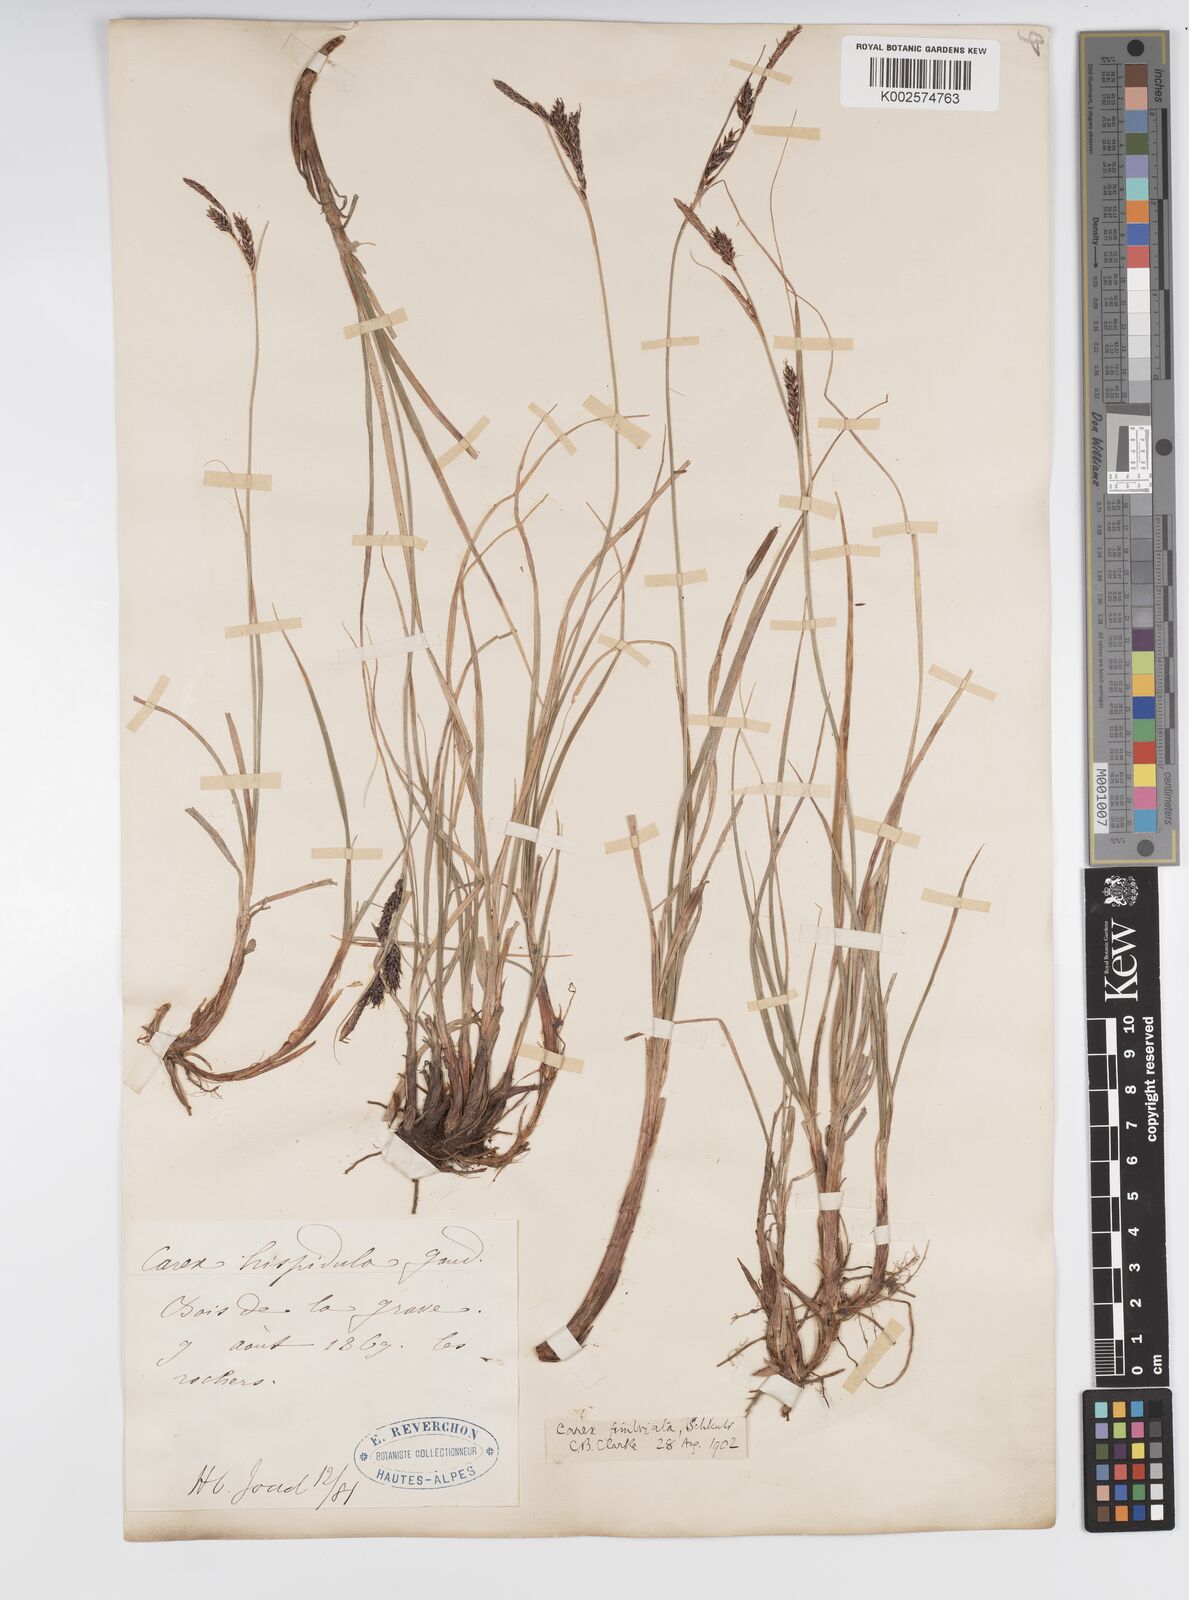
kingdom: Plantae
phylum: Tracheophyta
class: Liliopsida
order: Poales
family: Cyperaceae
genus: Carex
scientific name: Carex fimbriata
